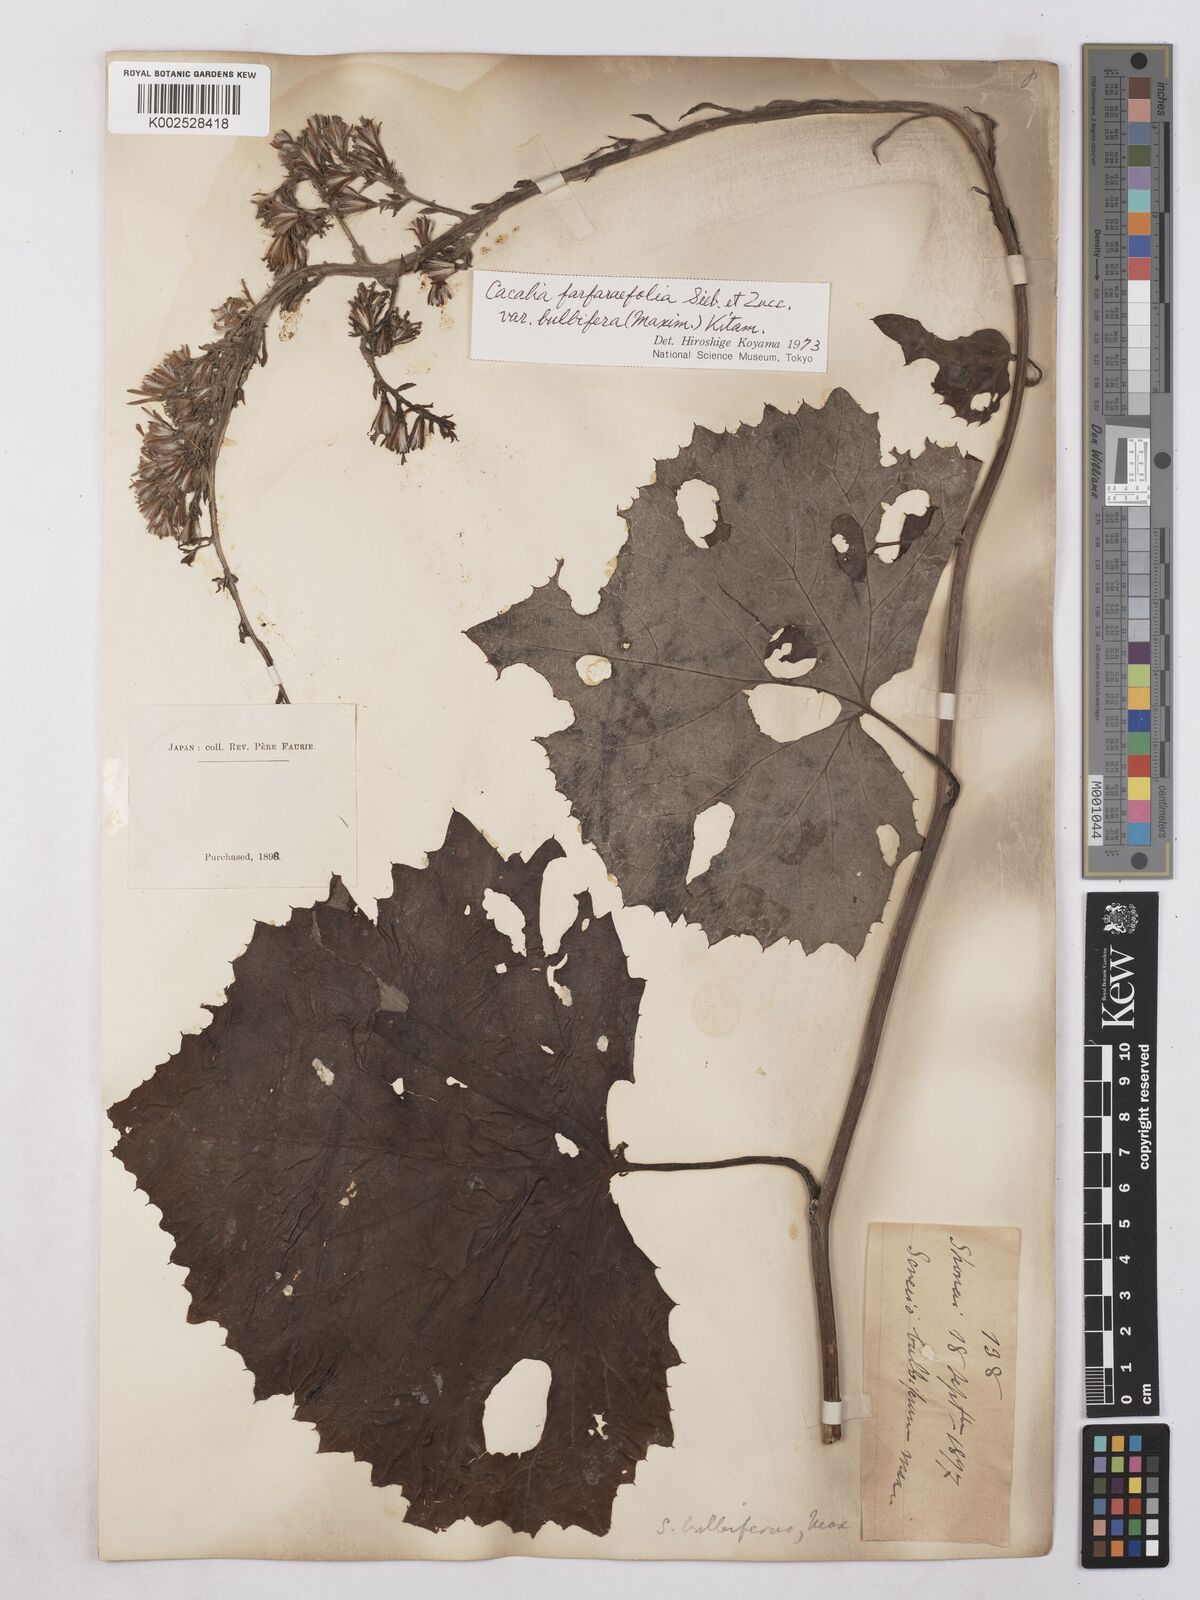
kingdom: Plantae
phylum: Tracheophyta
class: Magnoliopsida
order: Asterales
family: Asteraceae
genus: Parasenecio
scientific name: Parasenecio bulbiferoides
